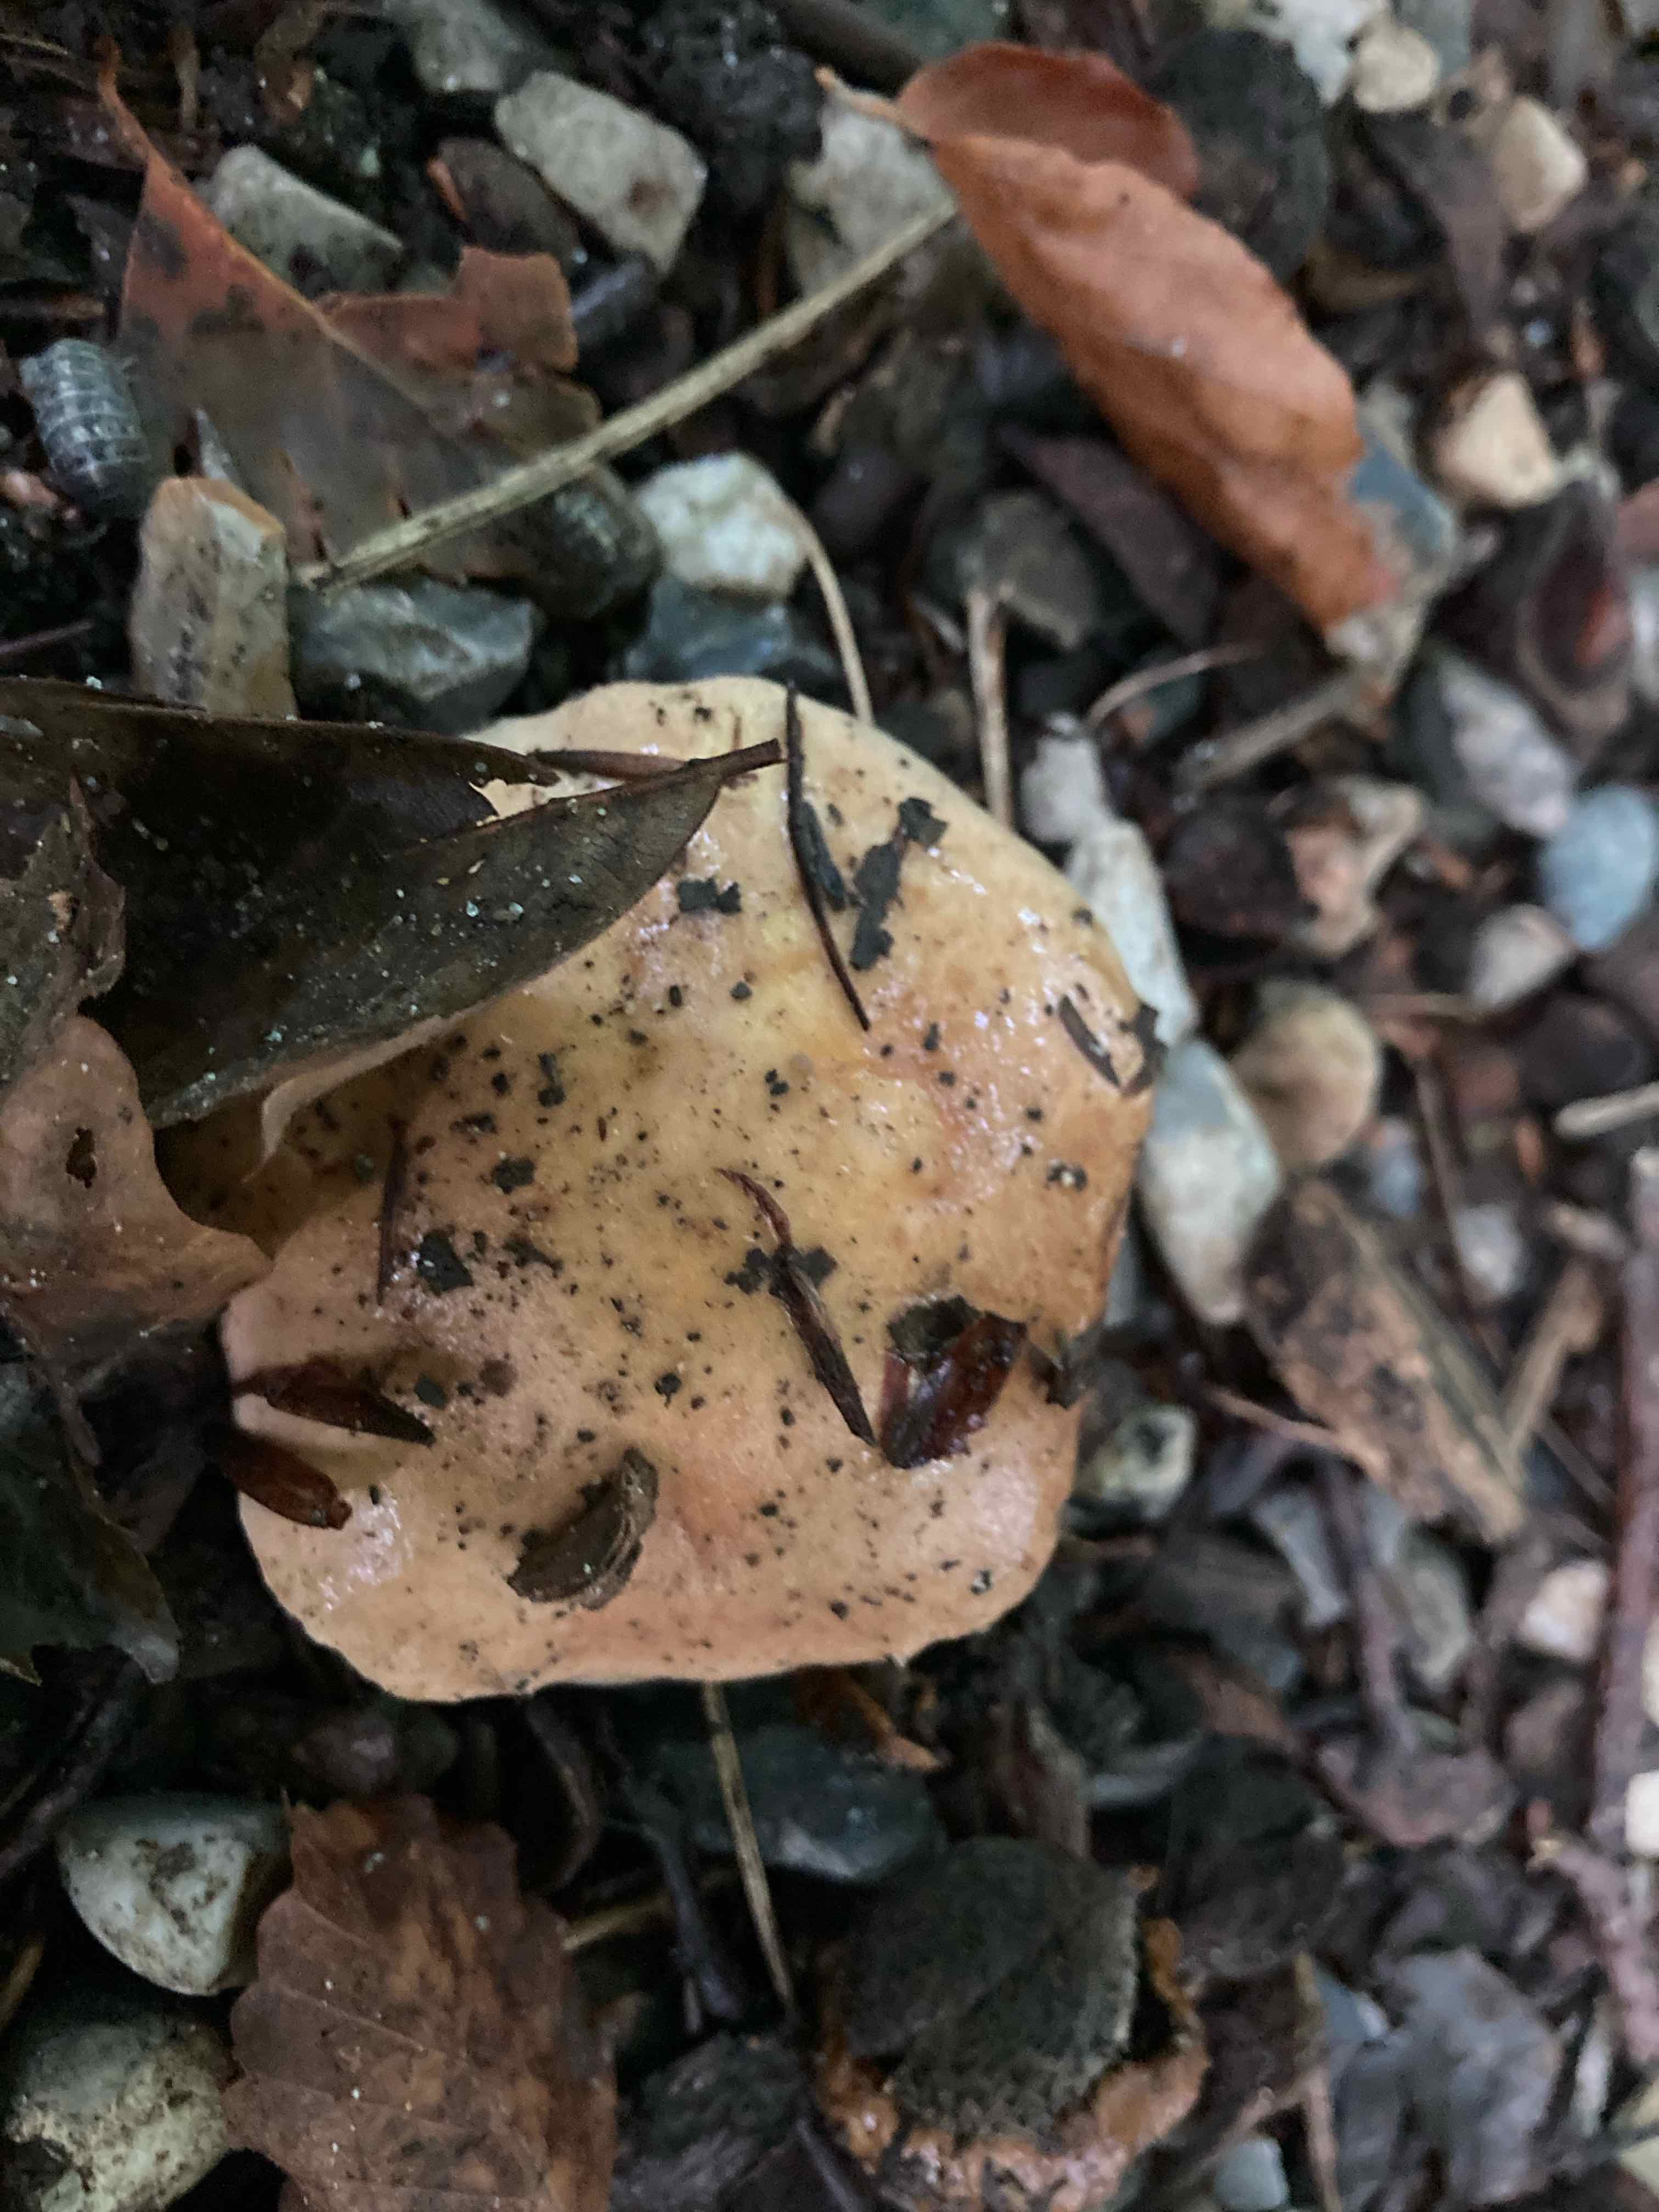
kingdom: Fungi
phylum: Basidiomycota
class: Agaricomycetes
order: Agaricales
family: Hymenogastraceae
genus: Hebeloma
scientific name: Hebeloma
